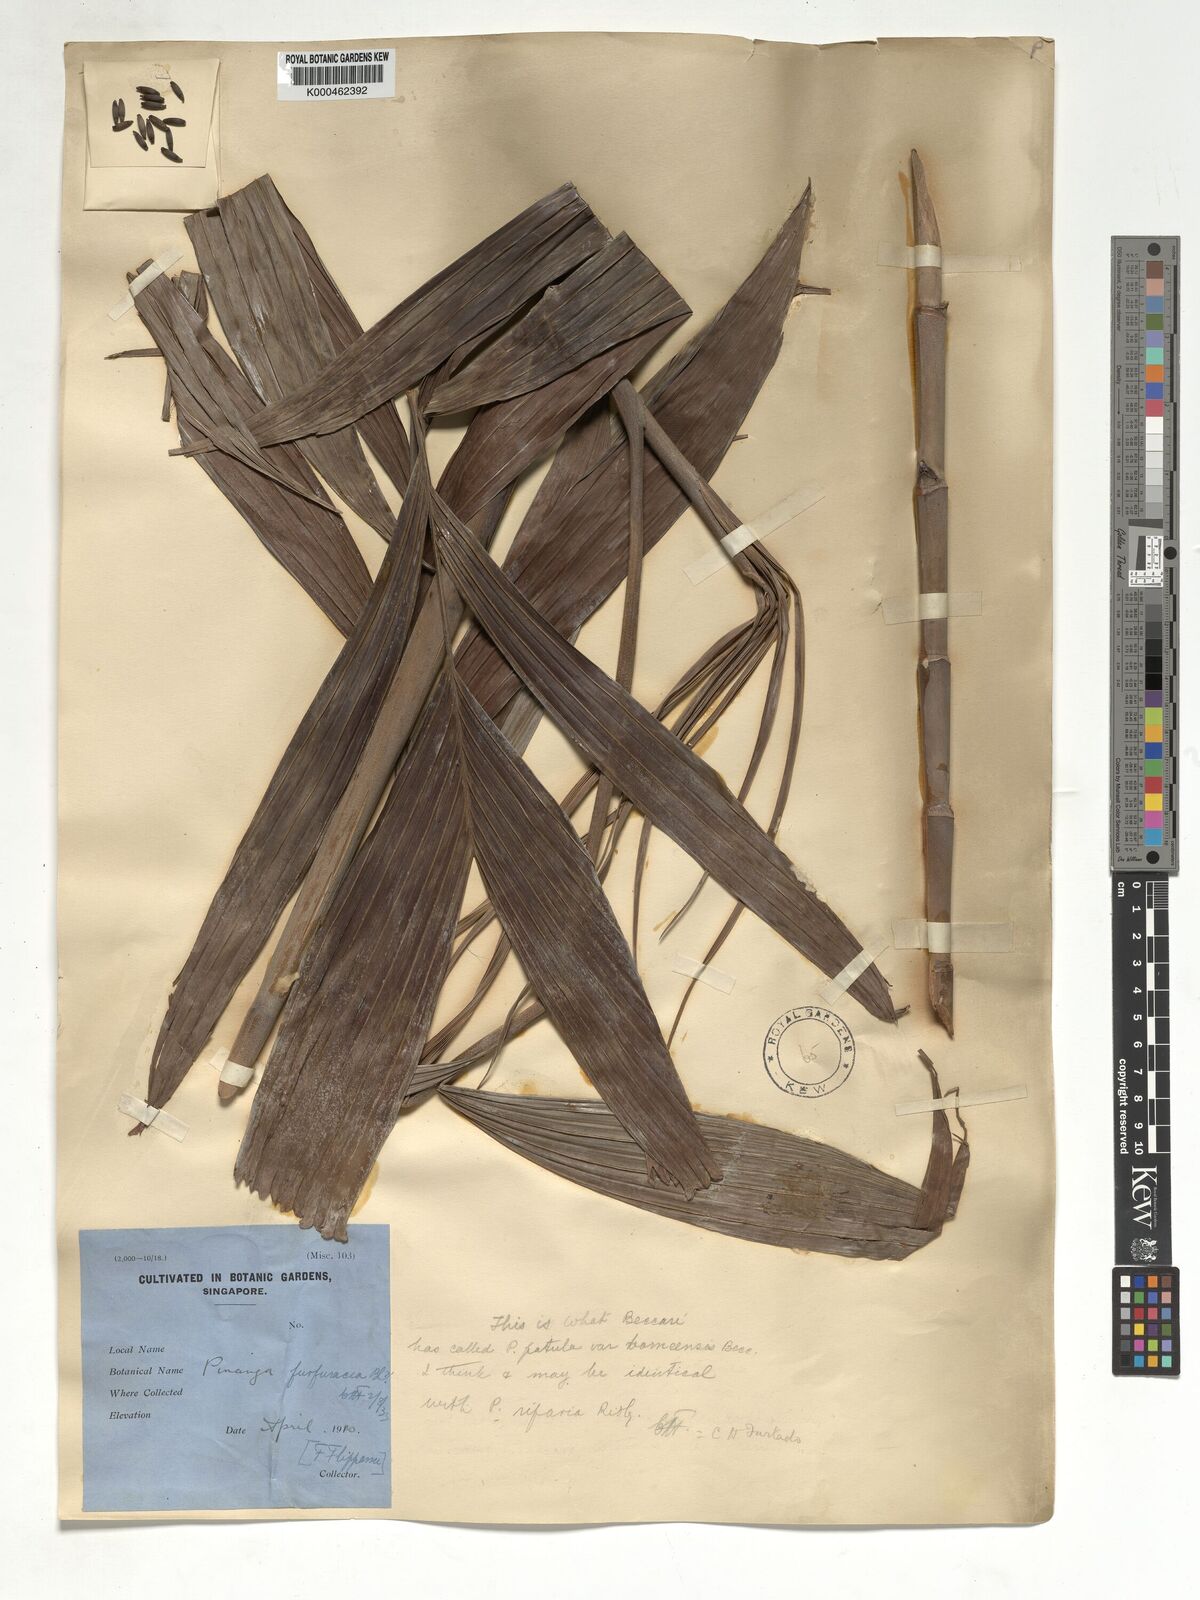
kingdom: Plantae
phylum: Tracheophyta
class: Liliopsida
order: Arecales
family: Arecaceae
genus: Pinanga
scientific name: Pinanga patula
